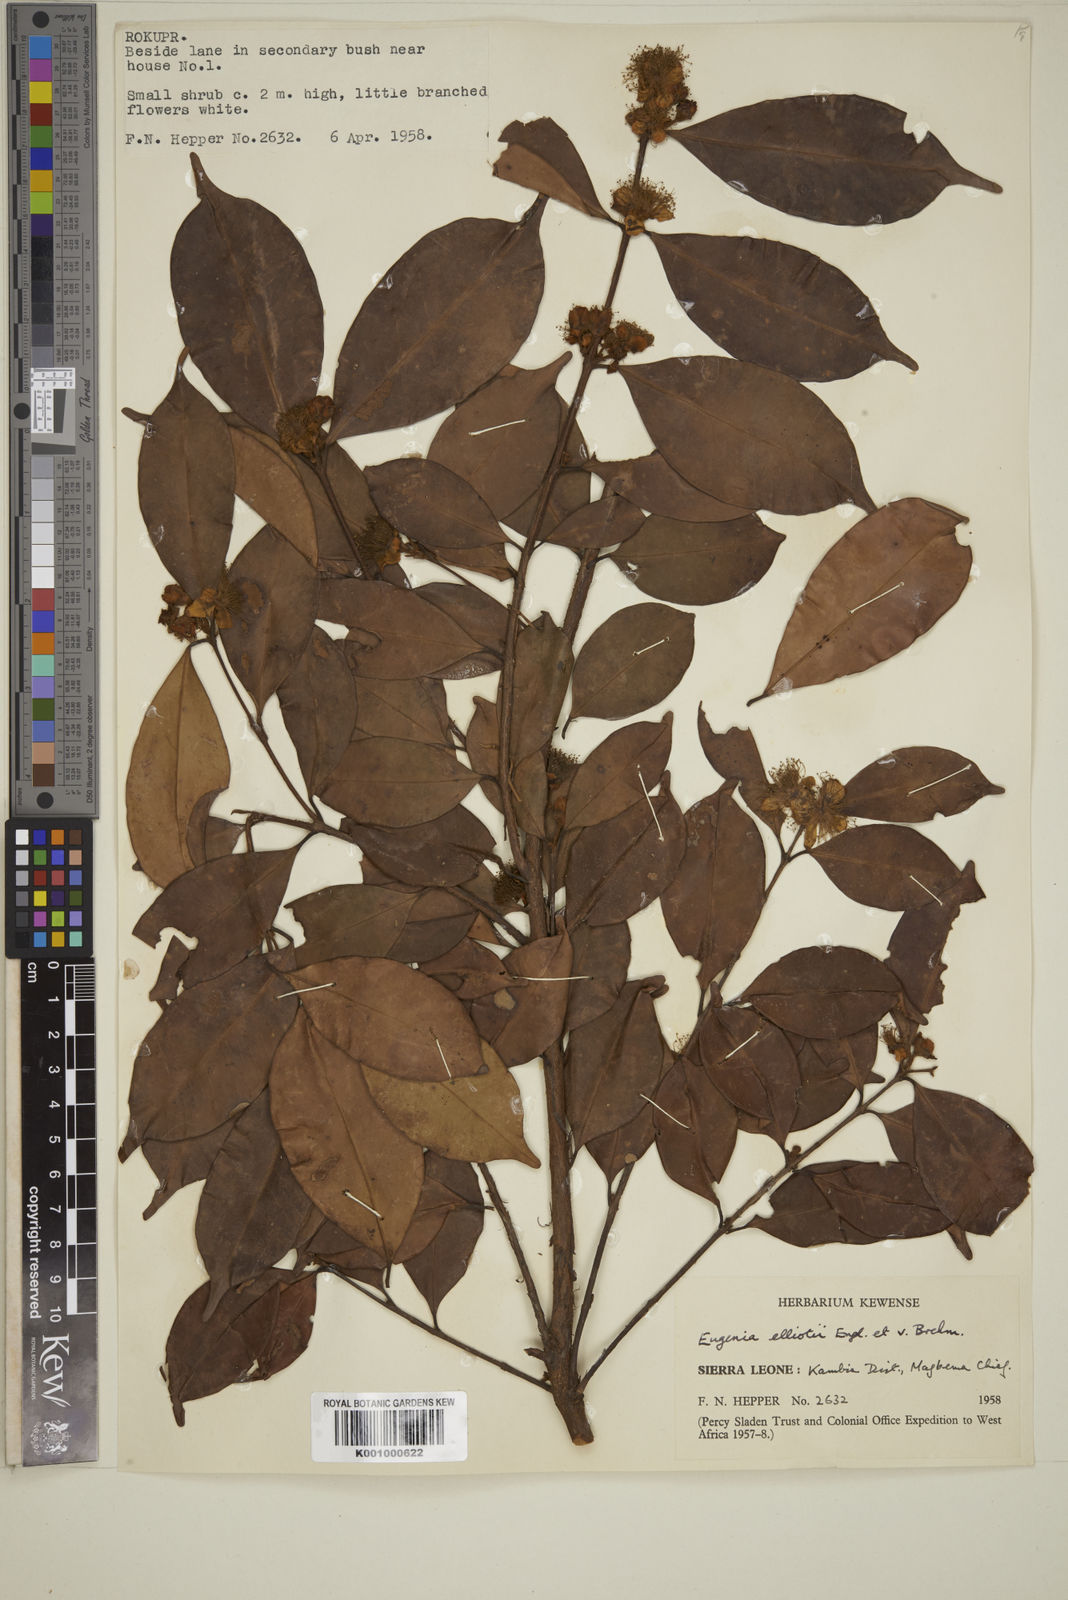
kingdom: Plantae
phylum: Tracheophyta
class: Magnoliopsida
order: Myrtales
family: Myrtaceae
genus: Eugenia
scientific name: Eugenia elliotii
